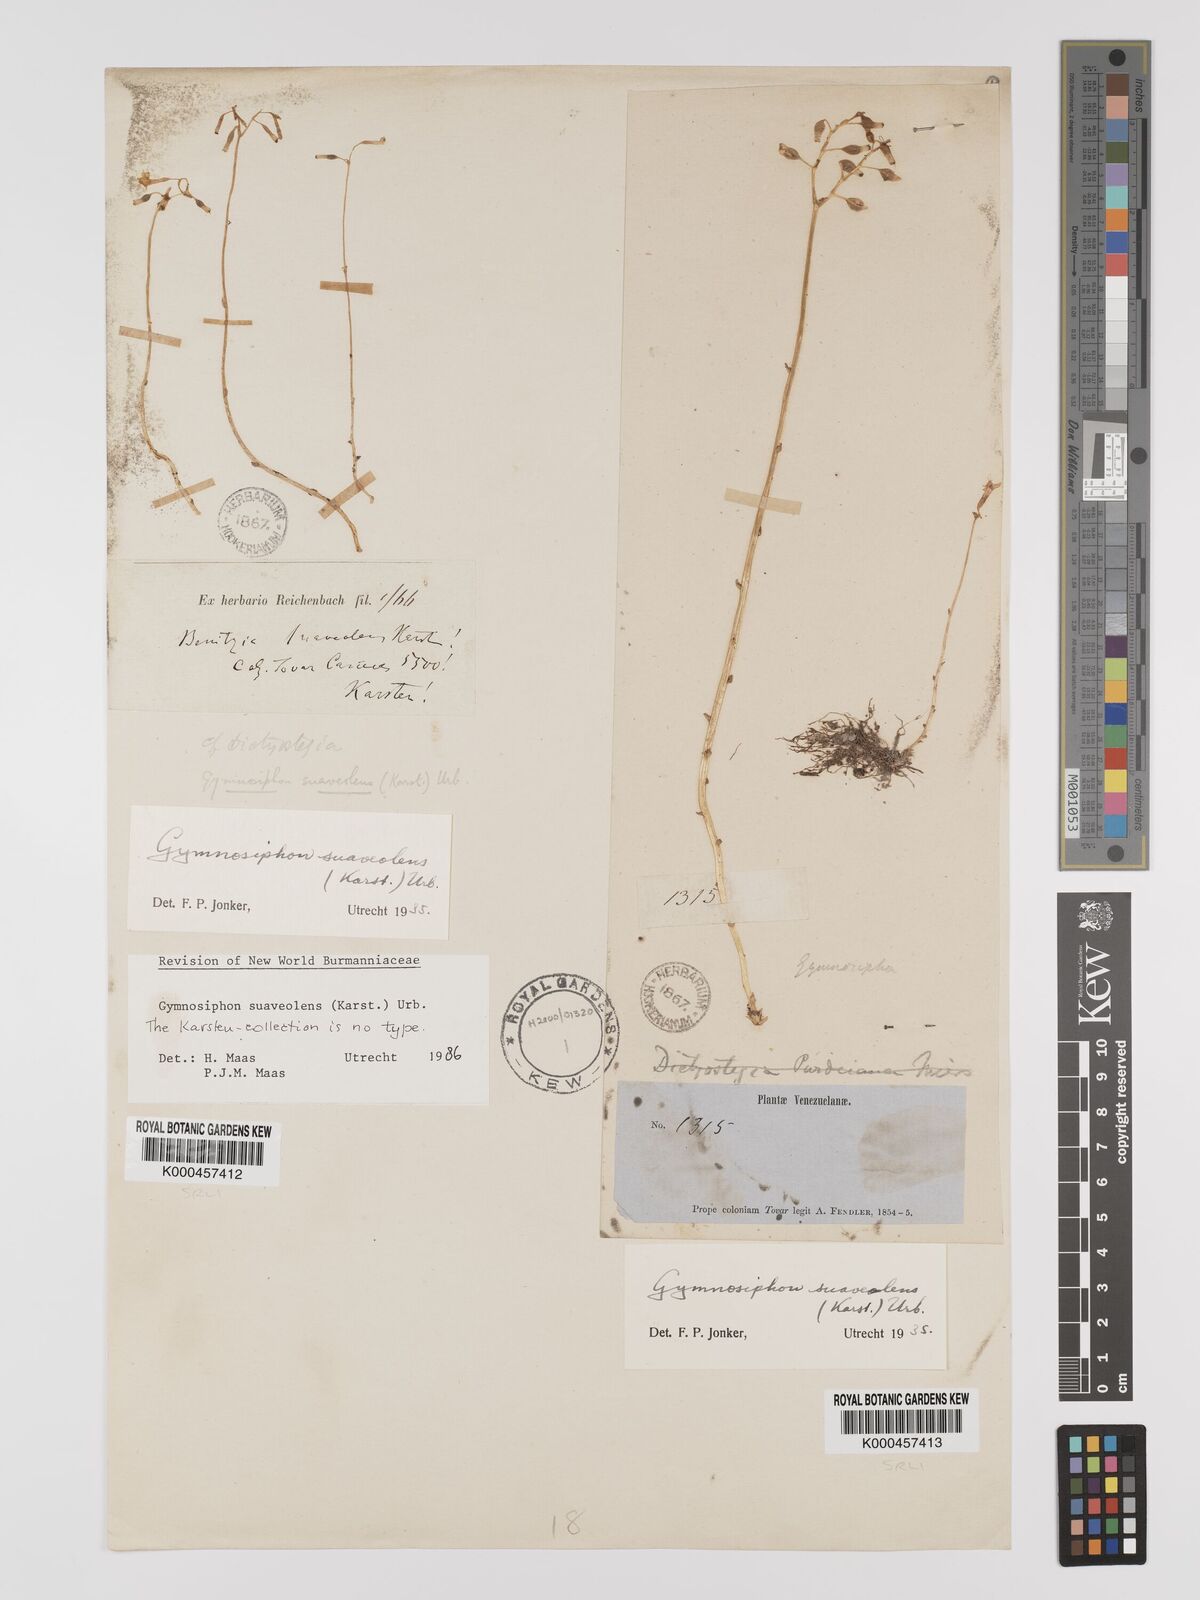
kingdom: Plantae
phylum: Tracheophyta
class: Liliopsida
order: Dioscoreales
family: Burmanniaceae
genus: Gymnosiphon
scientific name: Gymnosiphon suaveolens
